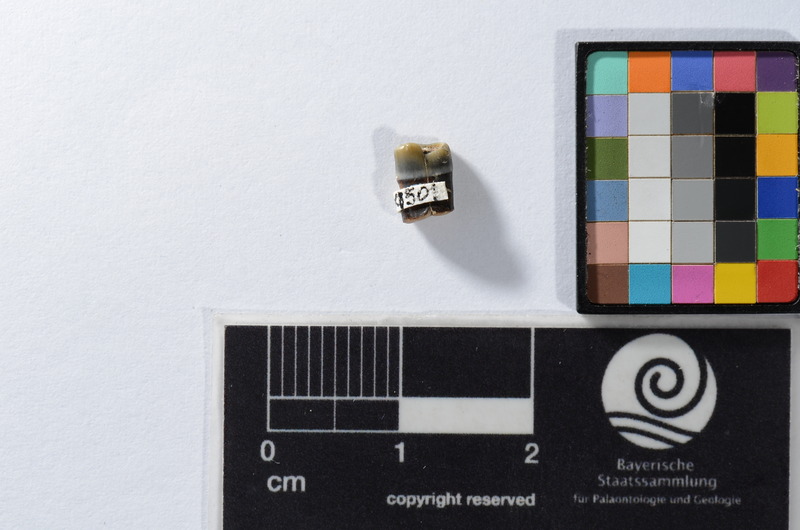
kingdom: Animalia
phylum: Chordata
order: Tetraodontiformes
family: Trigonodontidae
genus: Trigonodon
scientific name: Trigonodon Radamas jugleri
